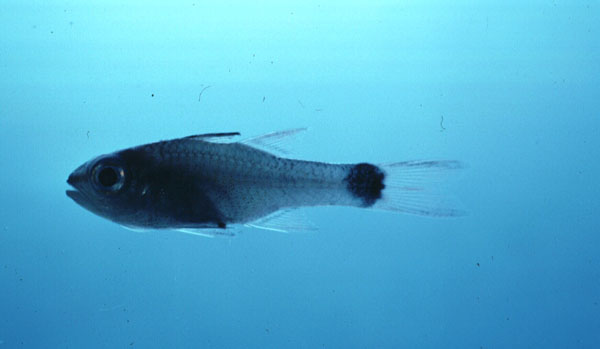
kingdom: Animalia
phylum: Chordata
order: Perciformes
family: Apogonidae
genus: Pristiapogon
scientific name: Pristiapogon taeniopterus
